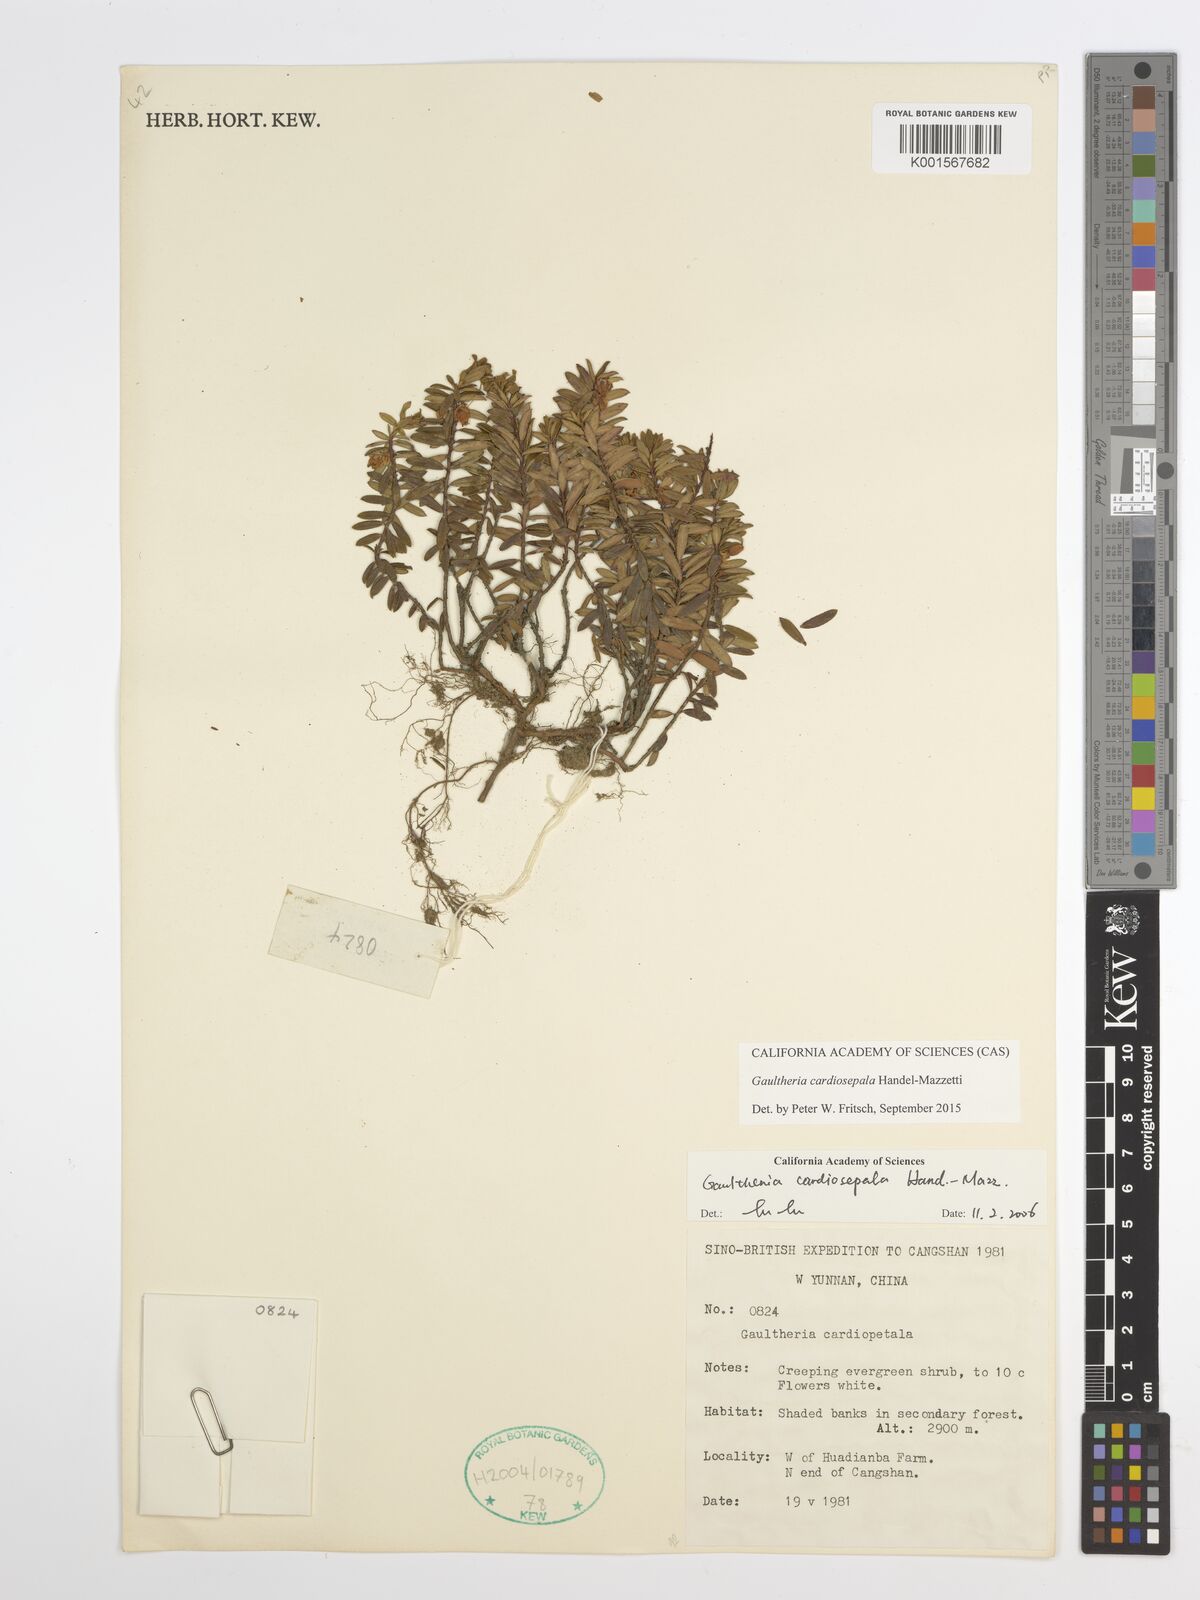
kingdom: Plantae
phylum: Tracheophyta
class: Magnoliopsida
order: Ericales
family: Ericaceae
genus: Gaultheria
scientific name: Gaultheria cardiosepala
